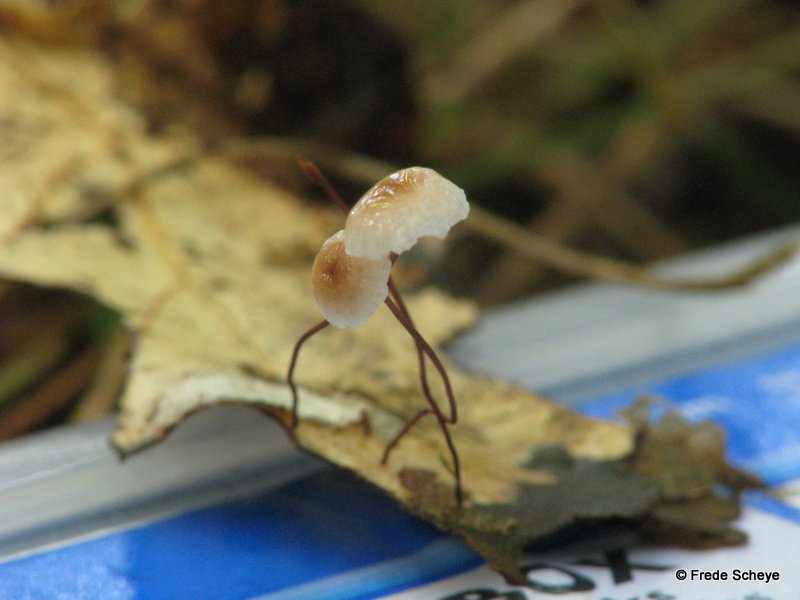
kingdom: Fungi
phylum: Basidiomycota
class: Agaricomycetes
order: Agaricales
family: Omphalotaceae
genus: Collybiopsis
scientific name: Collybiopsis quercophila
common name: egeblads-bruskhat
